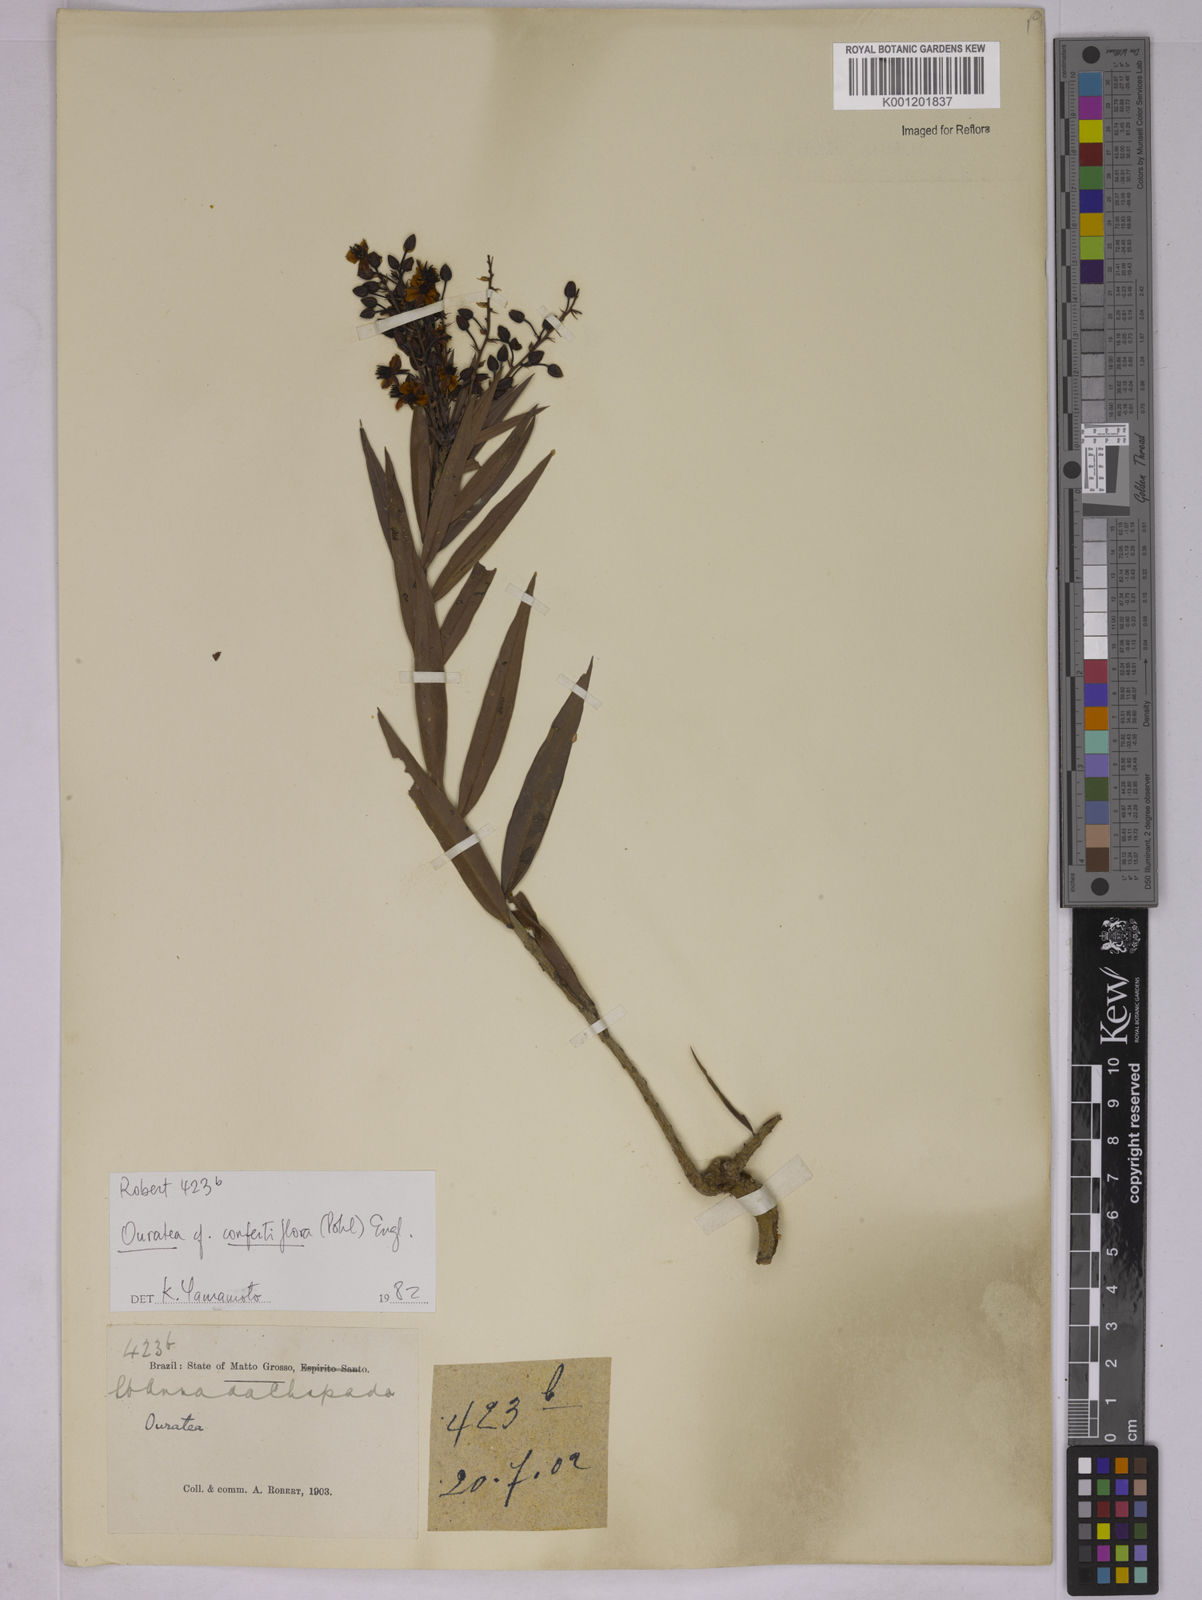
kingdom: Plantae
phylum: Tracheophyta
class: Magnoliopsida
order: Malpighiales
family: Ochnaceae
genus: Ouratea
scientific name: Ouratea confertiflora
